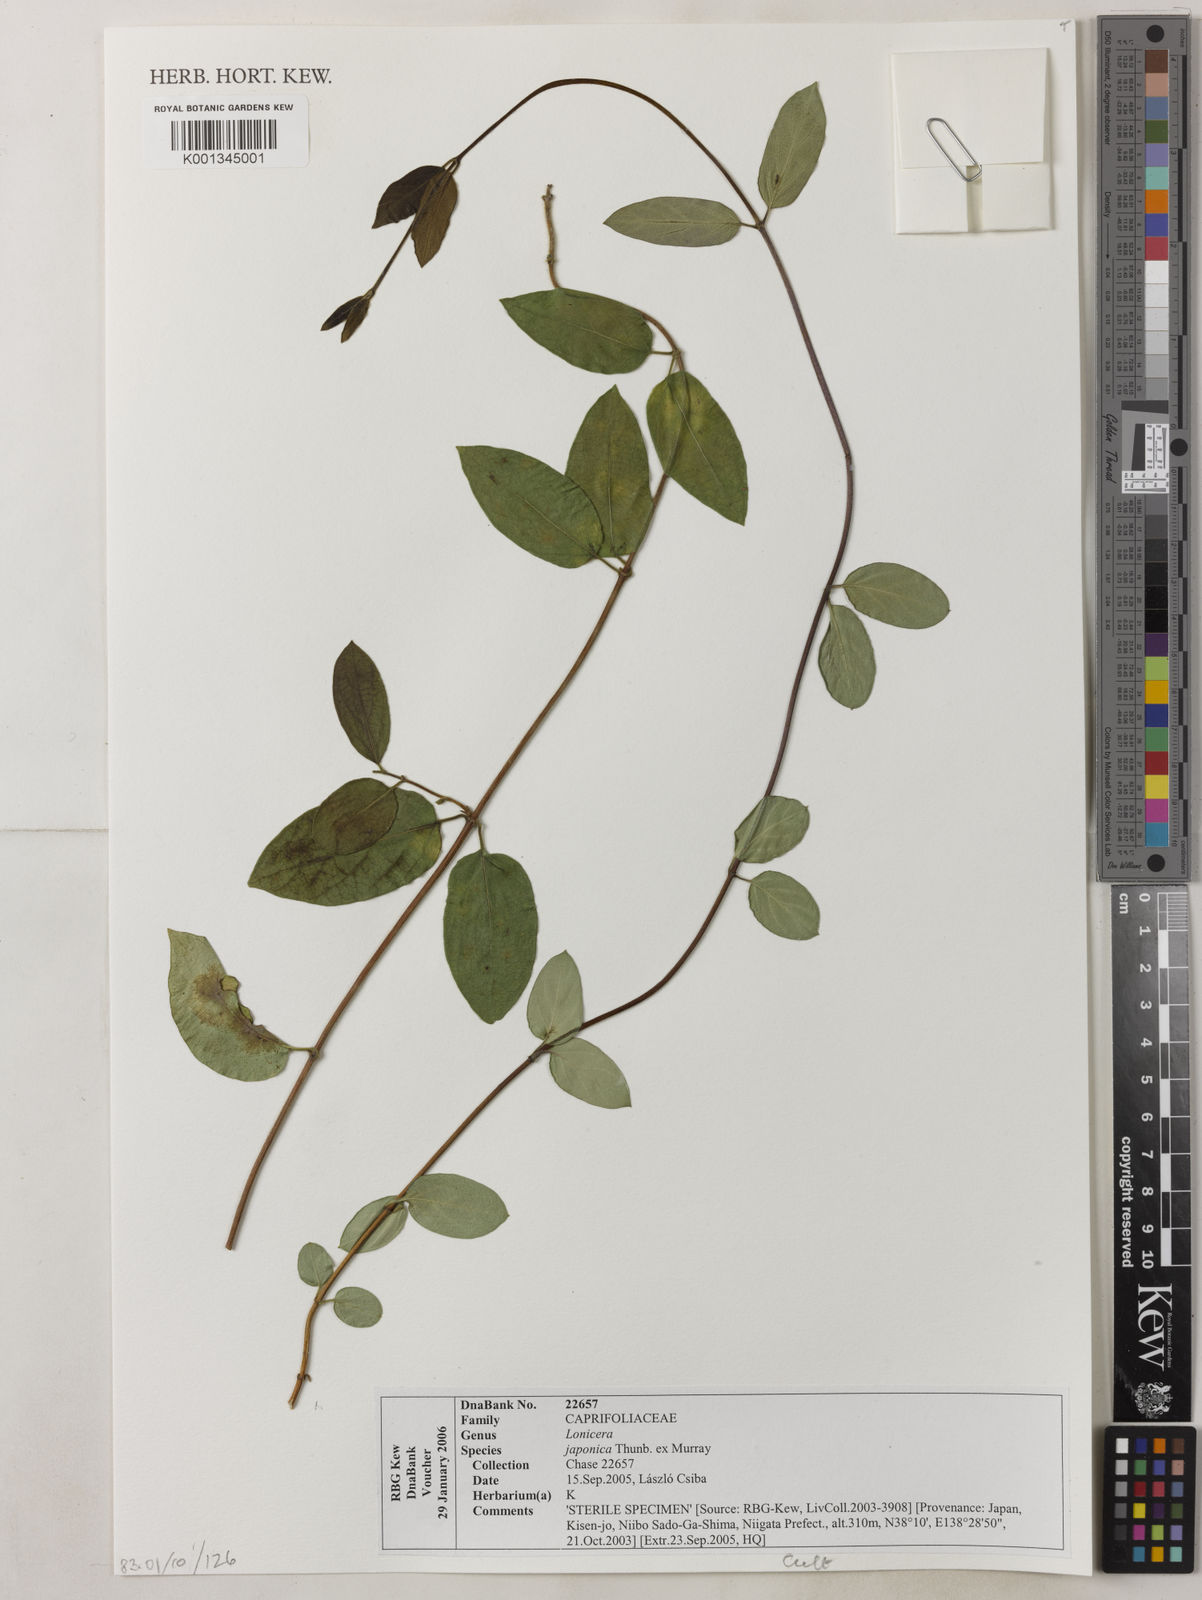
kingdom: Plantae
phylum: Tracheophyta
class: Magnoliopsida
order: Dipsacales
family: Caprifoliaceae
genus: Lonicera
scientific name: Lonicera
